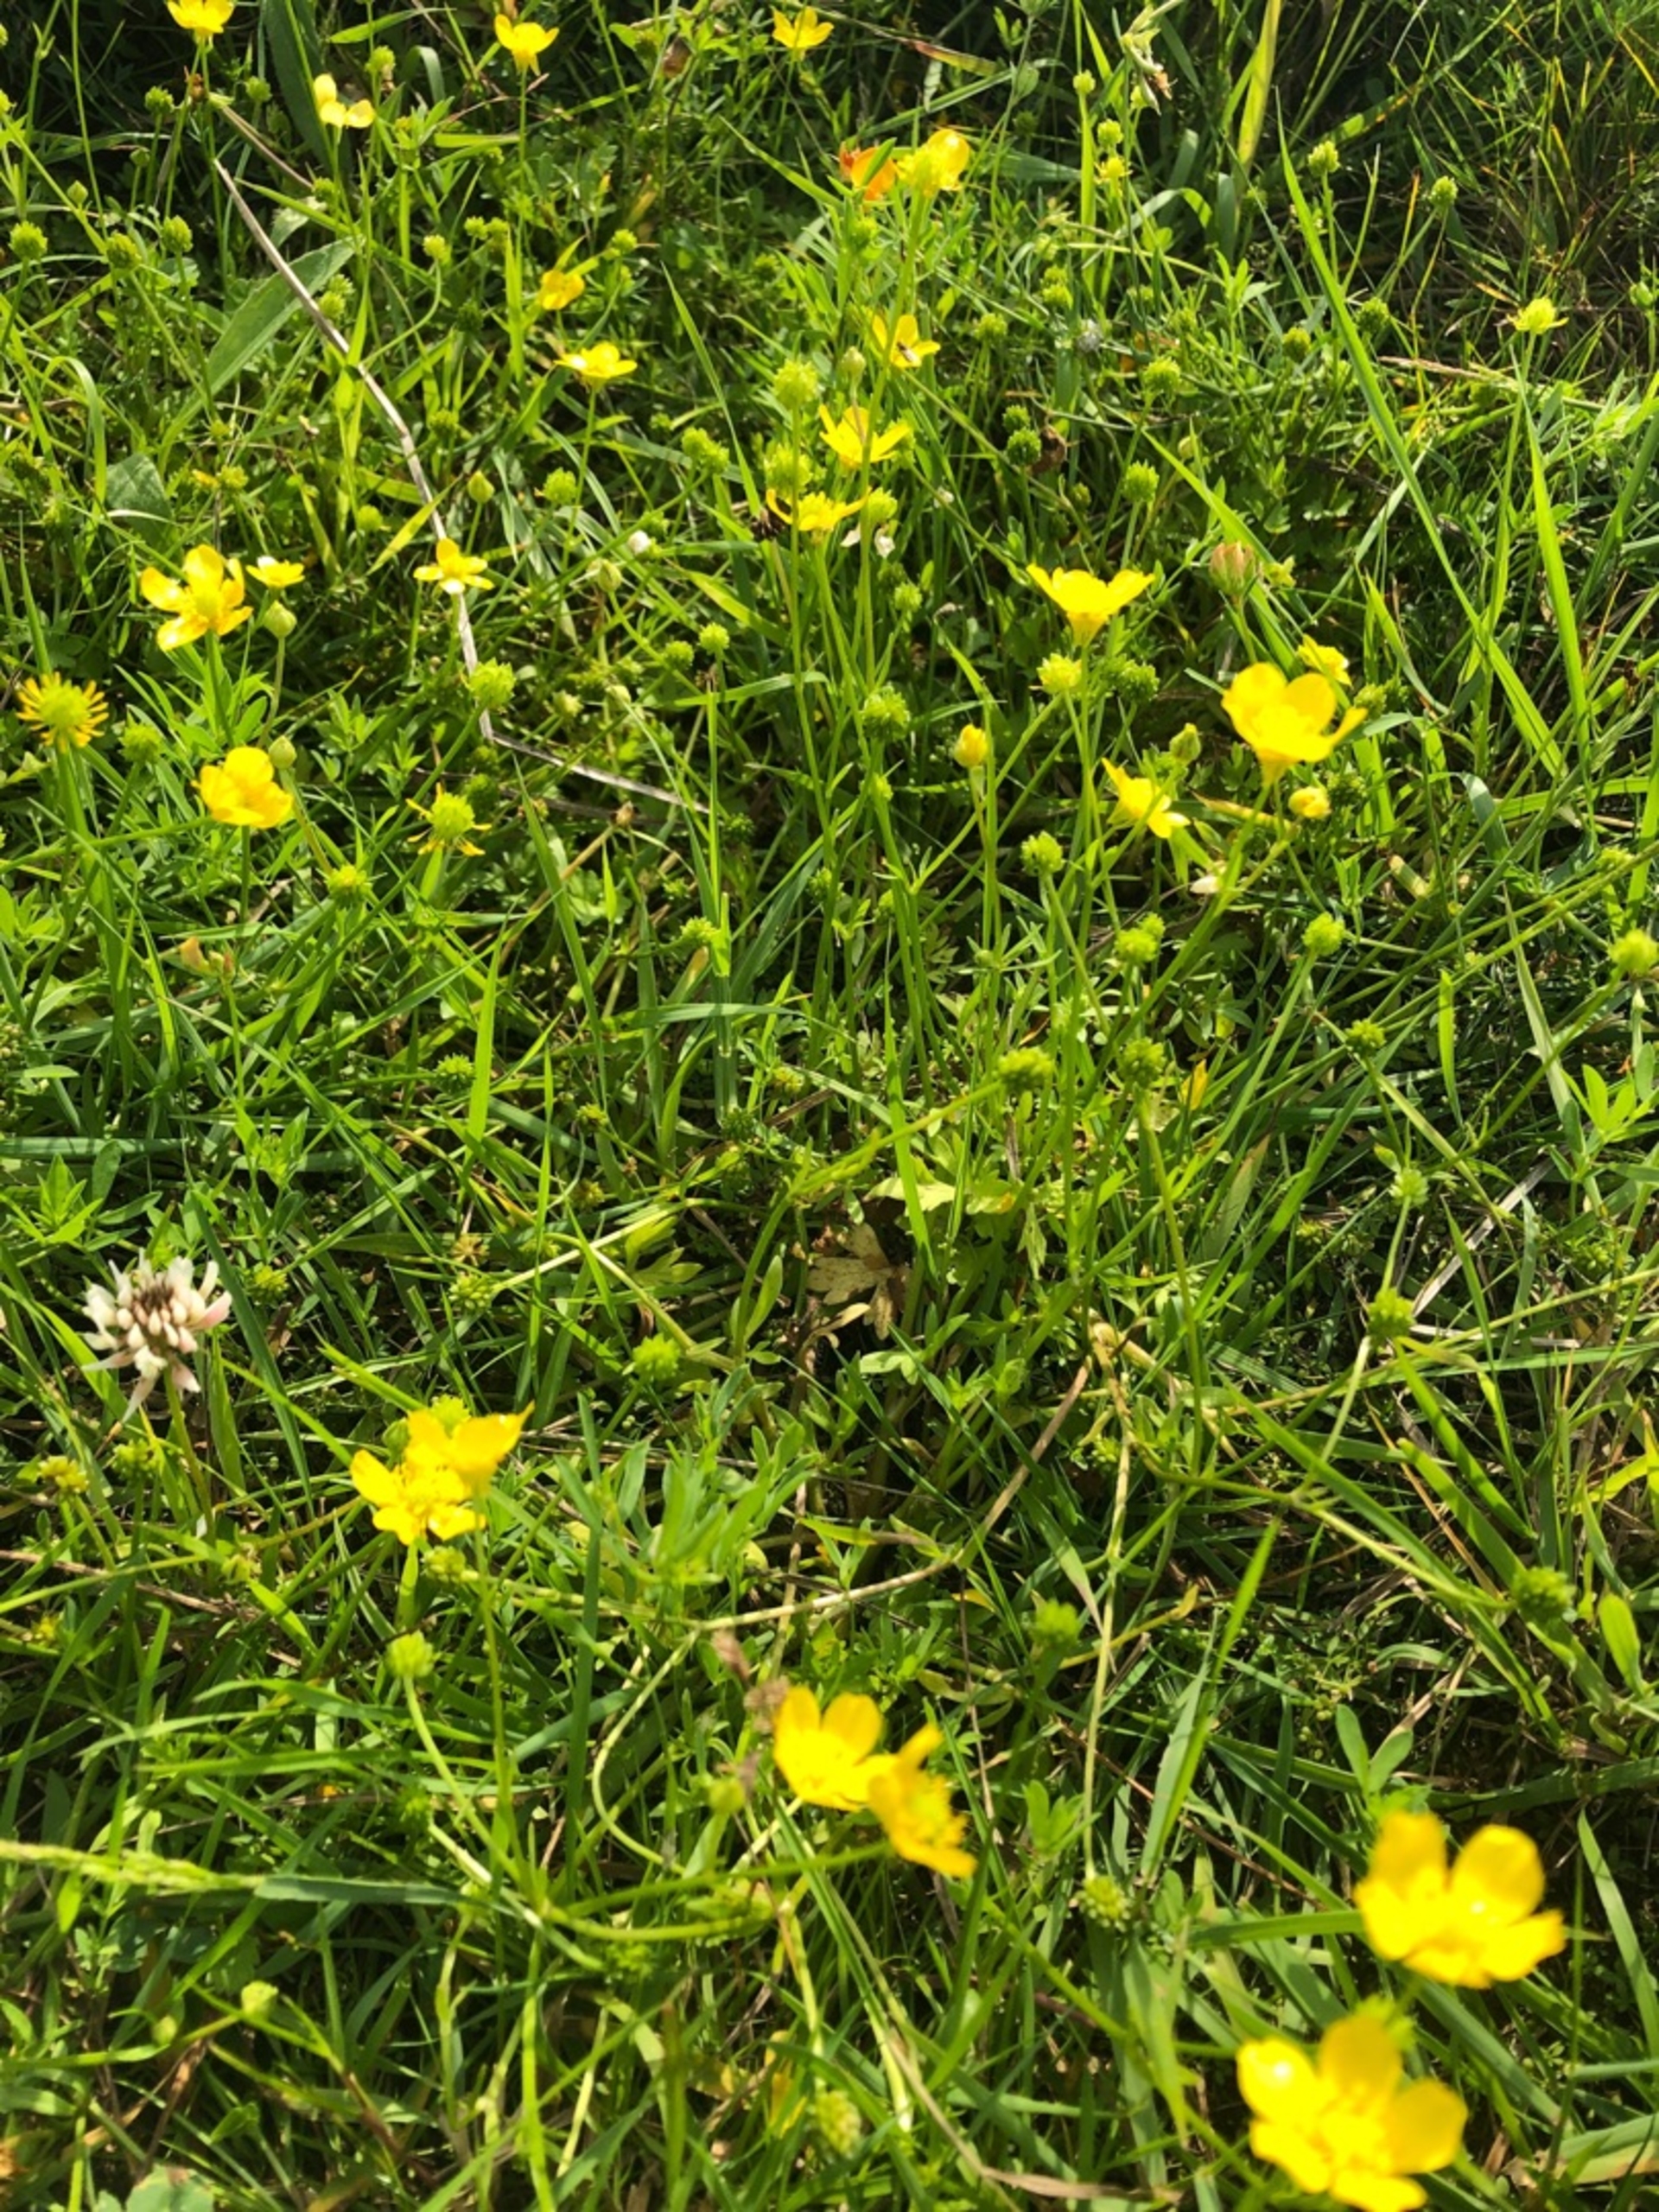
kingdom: Plantae
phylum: Tracheophyta
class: Magnoliopsida
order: Ranunculales
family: Ranunculaceae
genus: Ranunculus
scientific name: Ranunculus
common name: Ranunkelslægten
